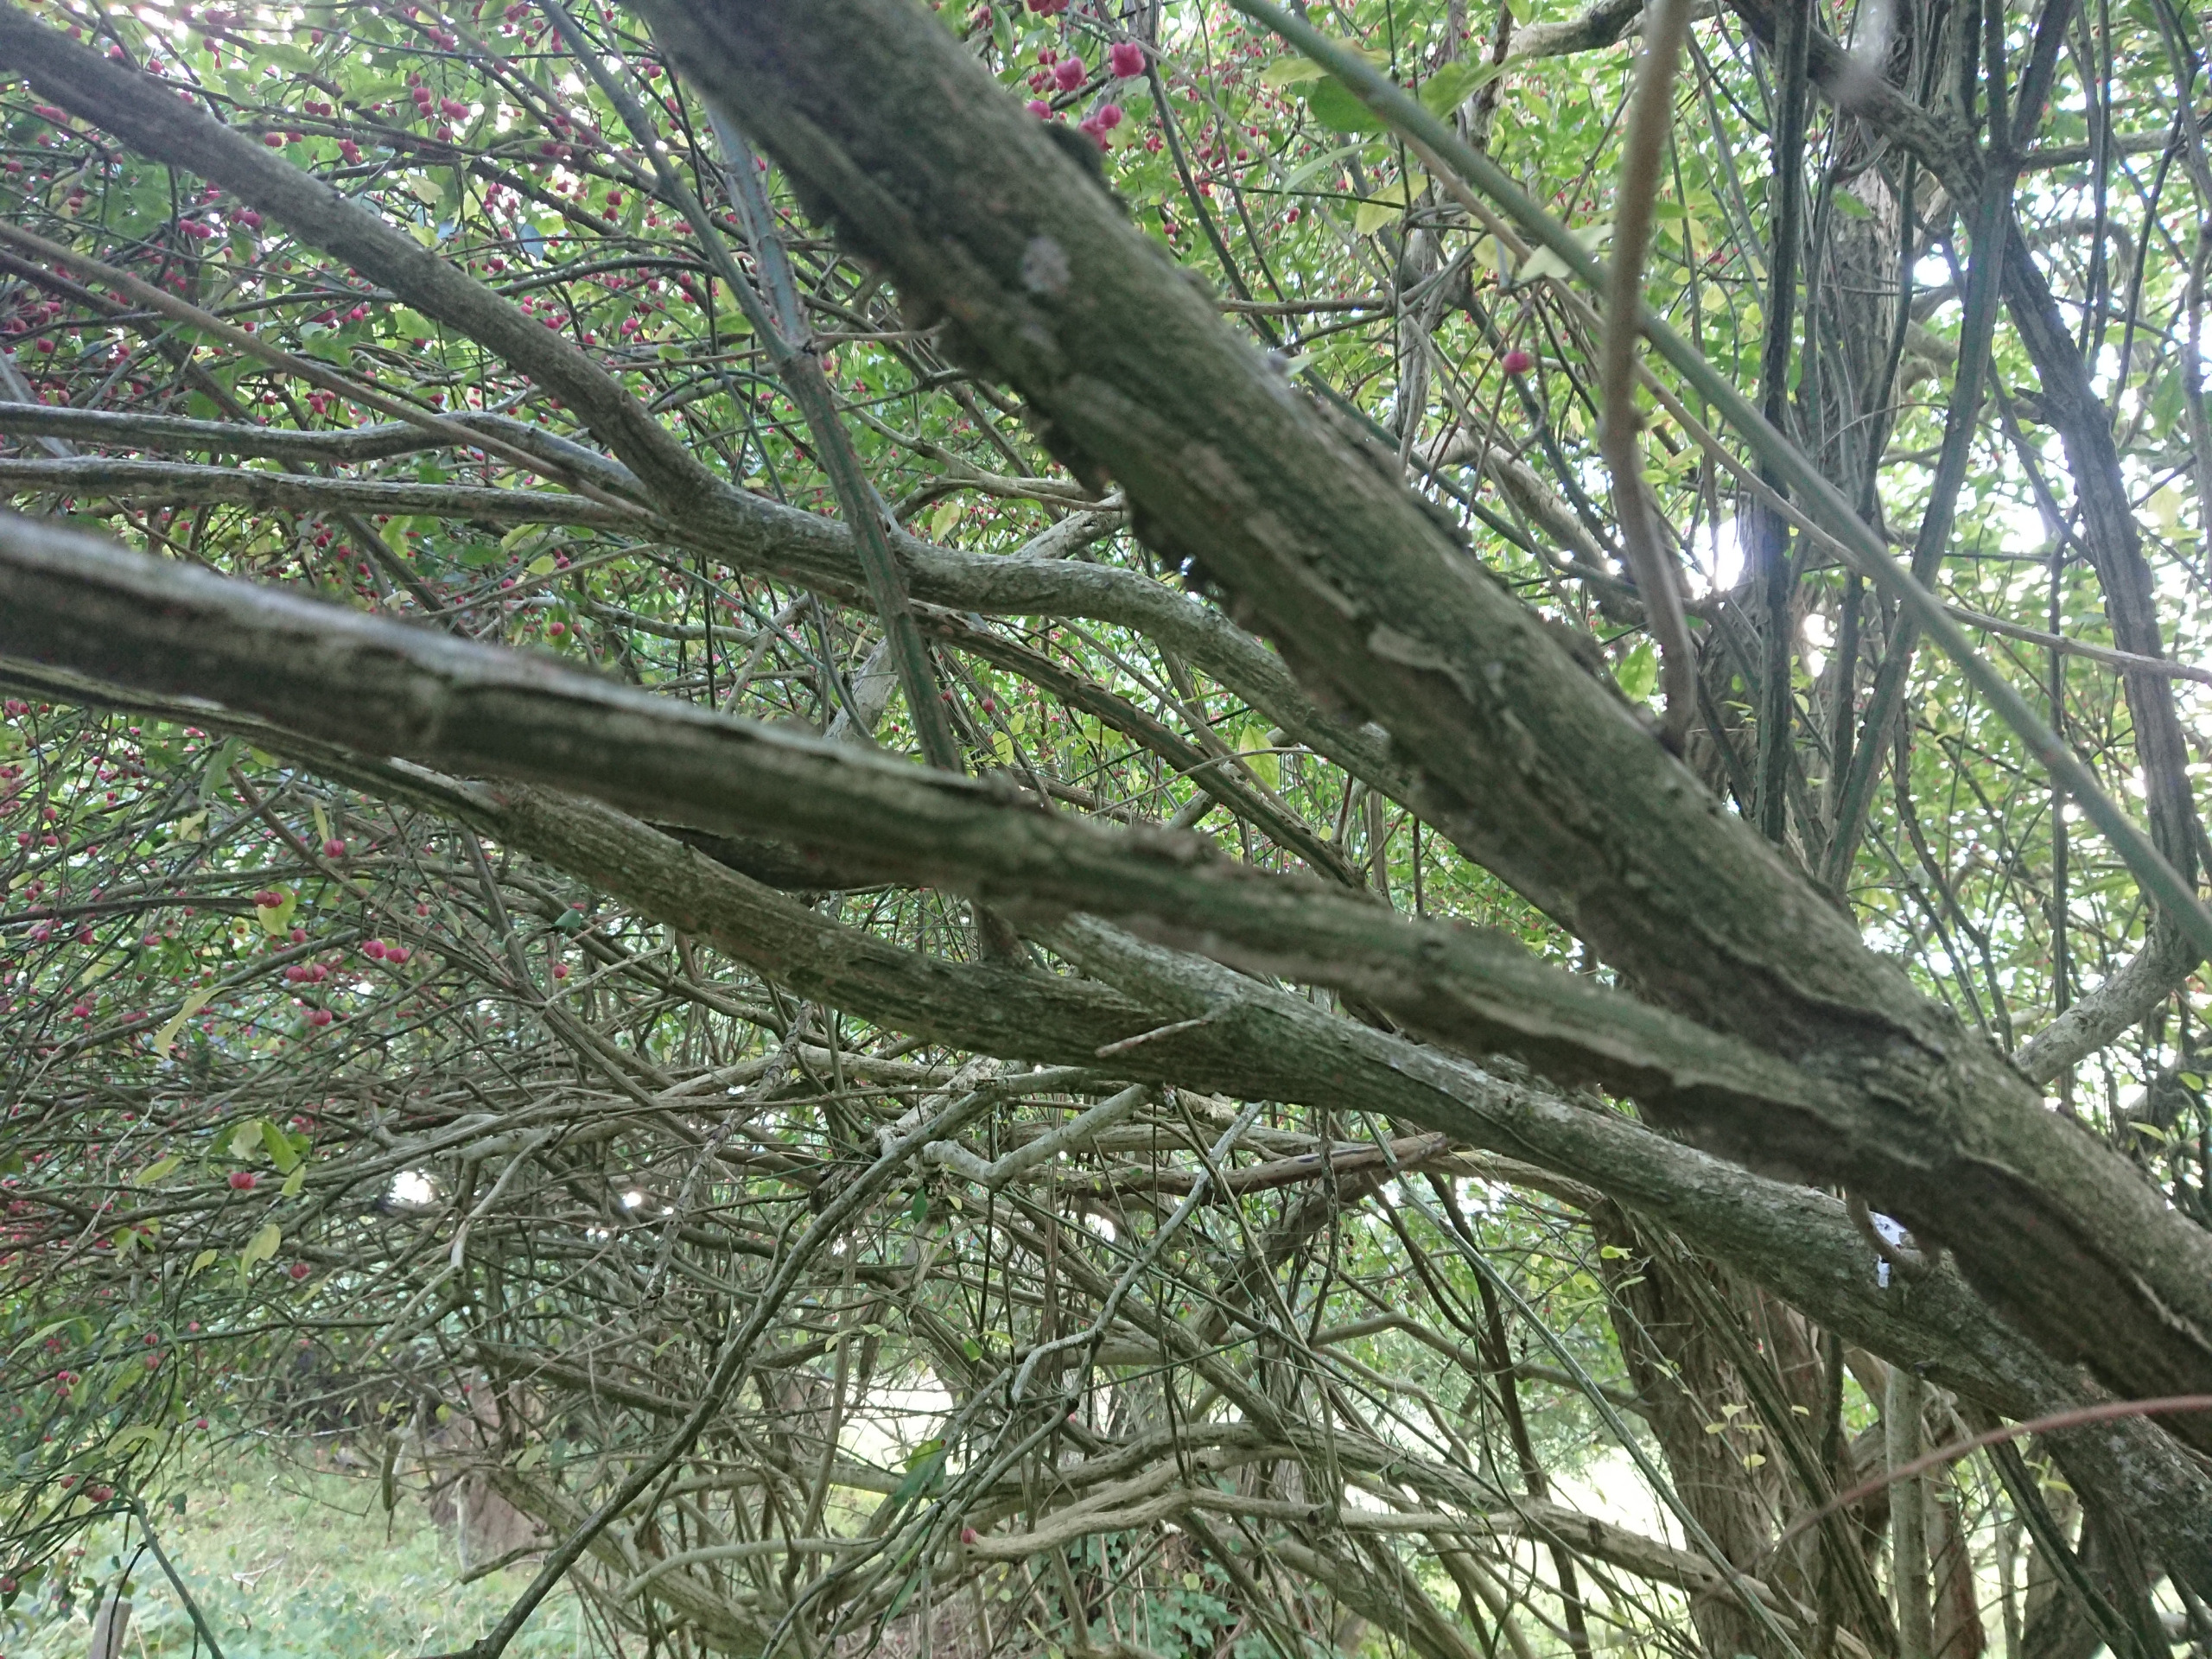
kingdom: Plantae
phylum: Tracheophyta
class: Magnoliopsida
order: Celastrales
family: Celastraceae
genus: Euonymus
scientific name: Euonymus europaeus
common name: Benved
